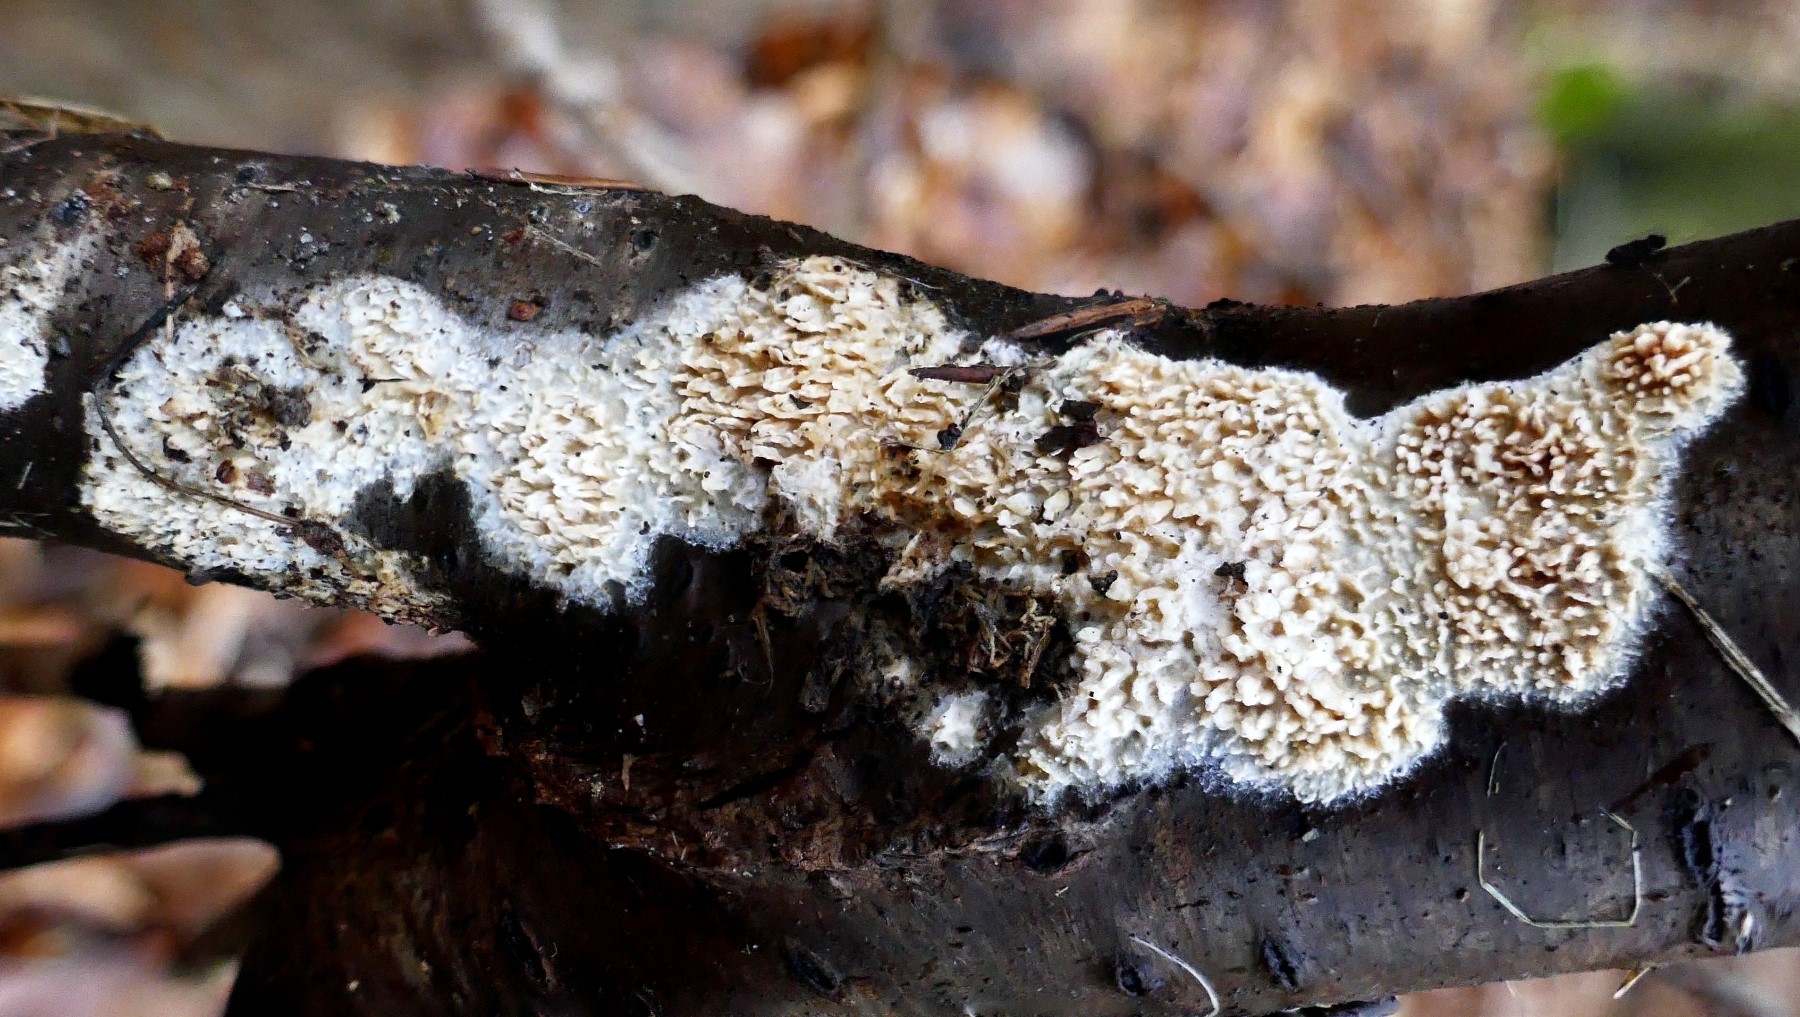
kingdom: Fungi
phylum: Basidiomycota
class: Agaricomycetes
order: Hymenochaetales
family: Schizoporaceae
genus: Xylodon
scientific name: Xylodon radula
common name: grovtandet kalkskind
